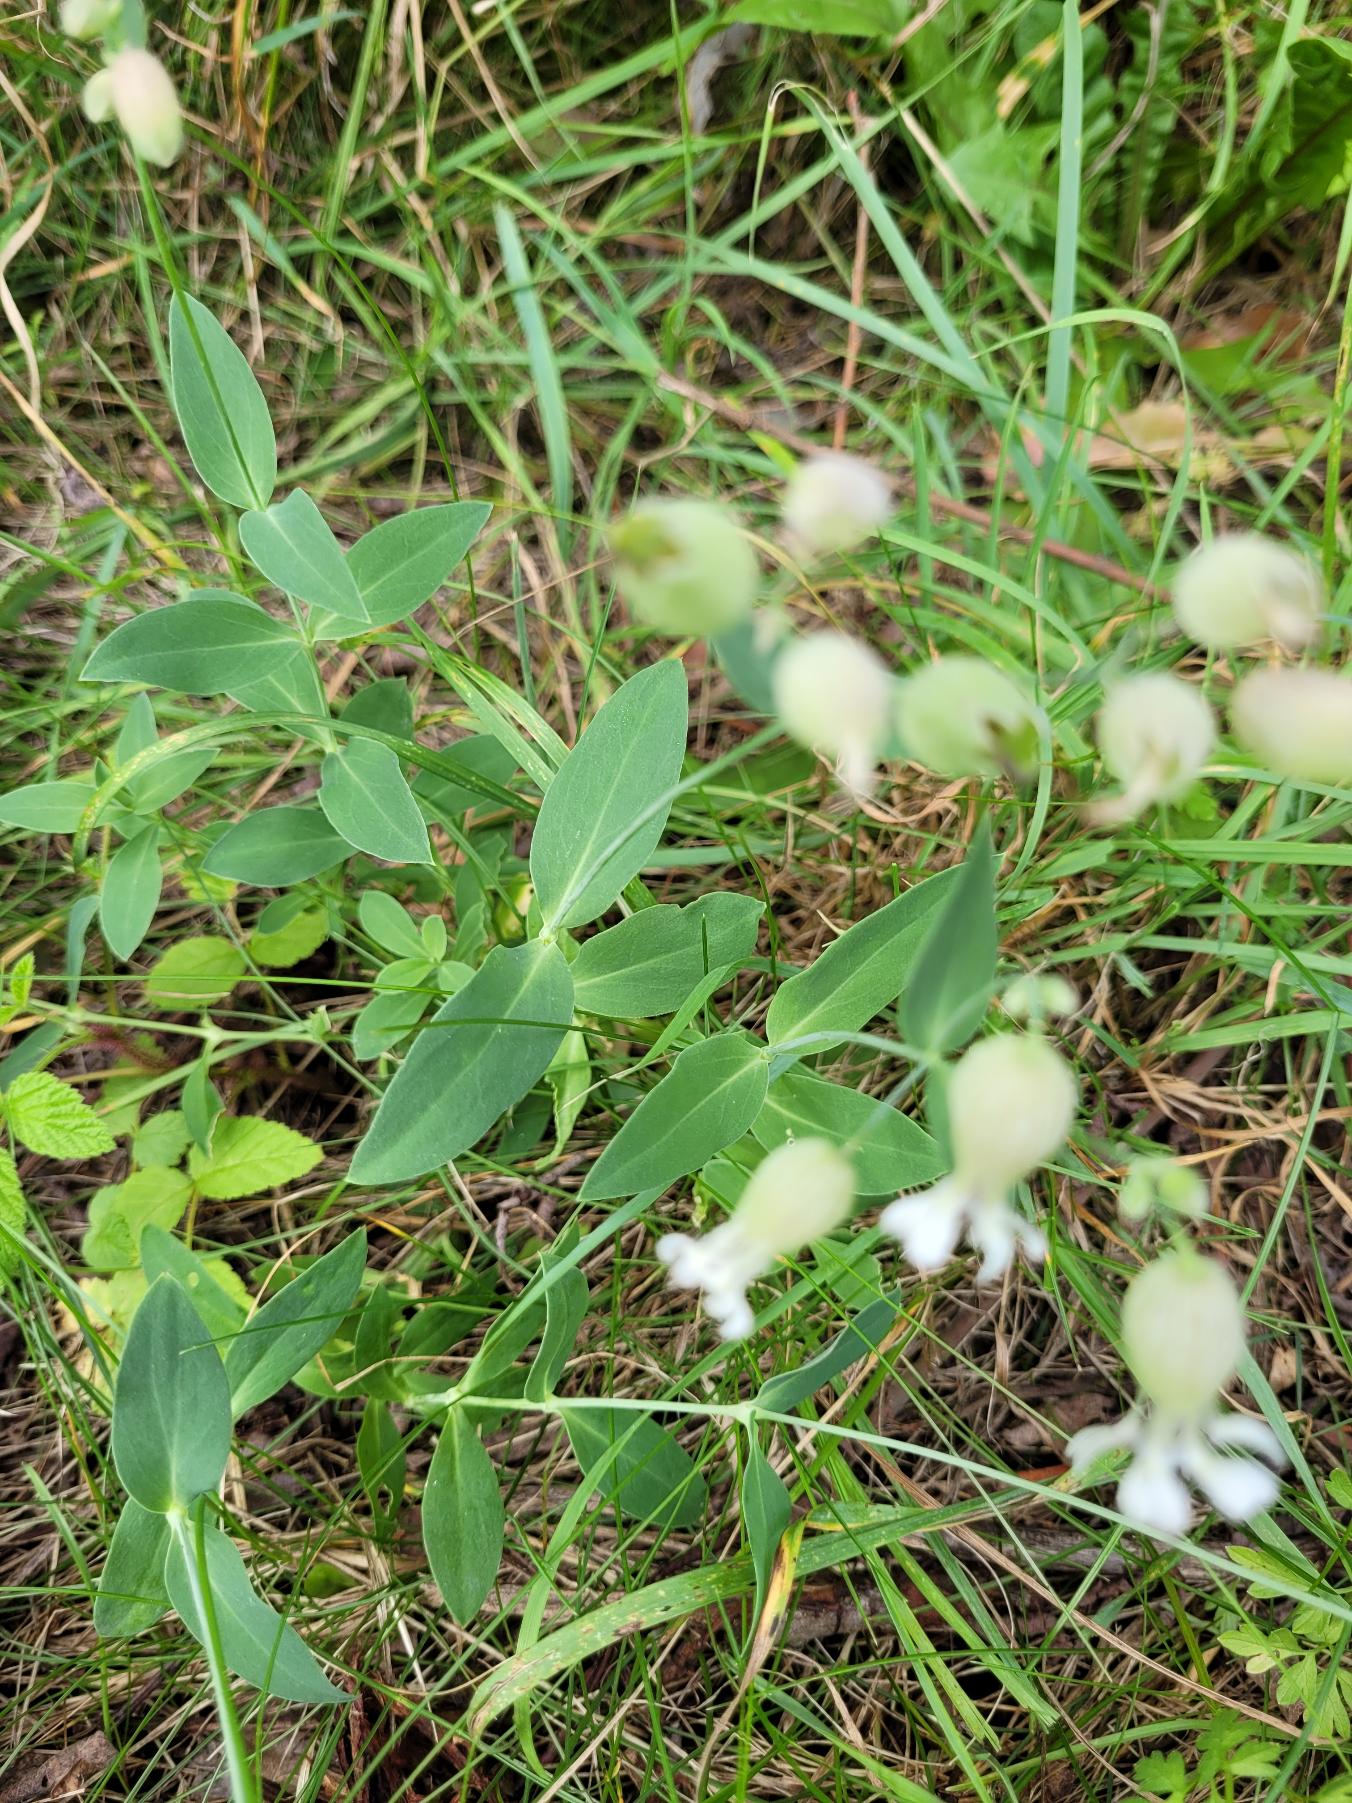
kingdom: Plantae
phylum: Tracheophyta
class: Magnoliopsida
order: Caryophyllales
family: Caryophyllaceae
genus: Silene
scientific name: Silene vulgaris
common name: Blæresmælde
